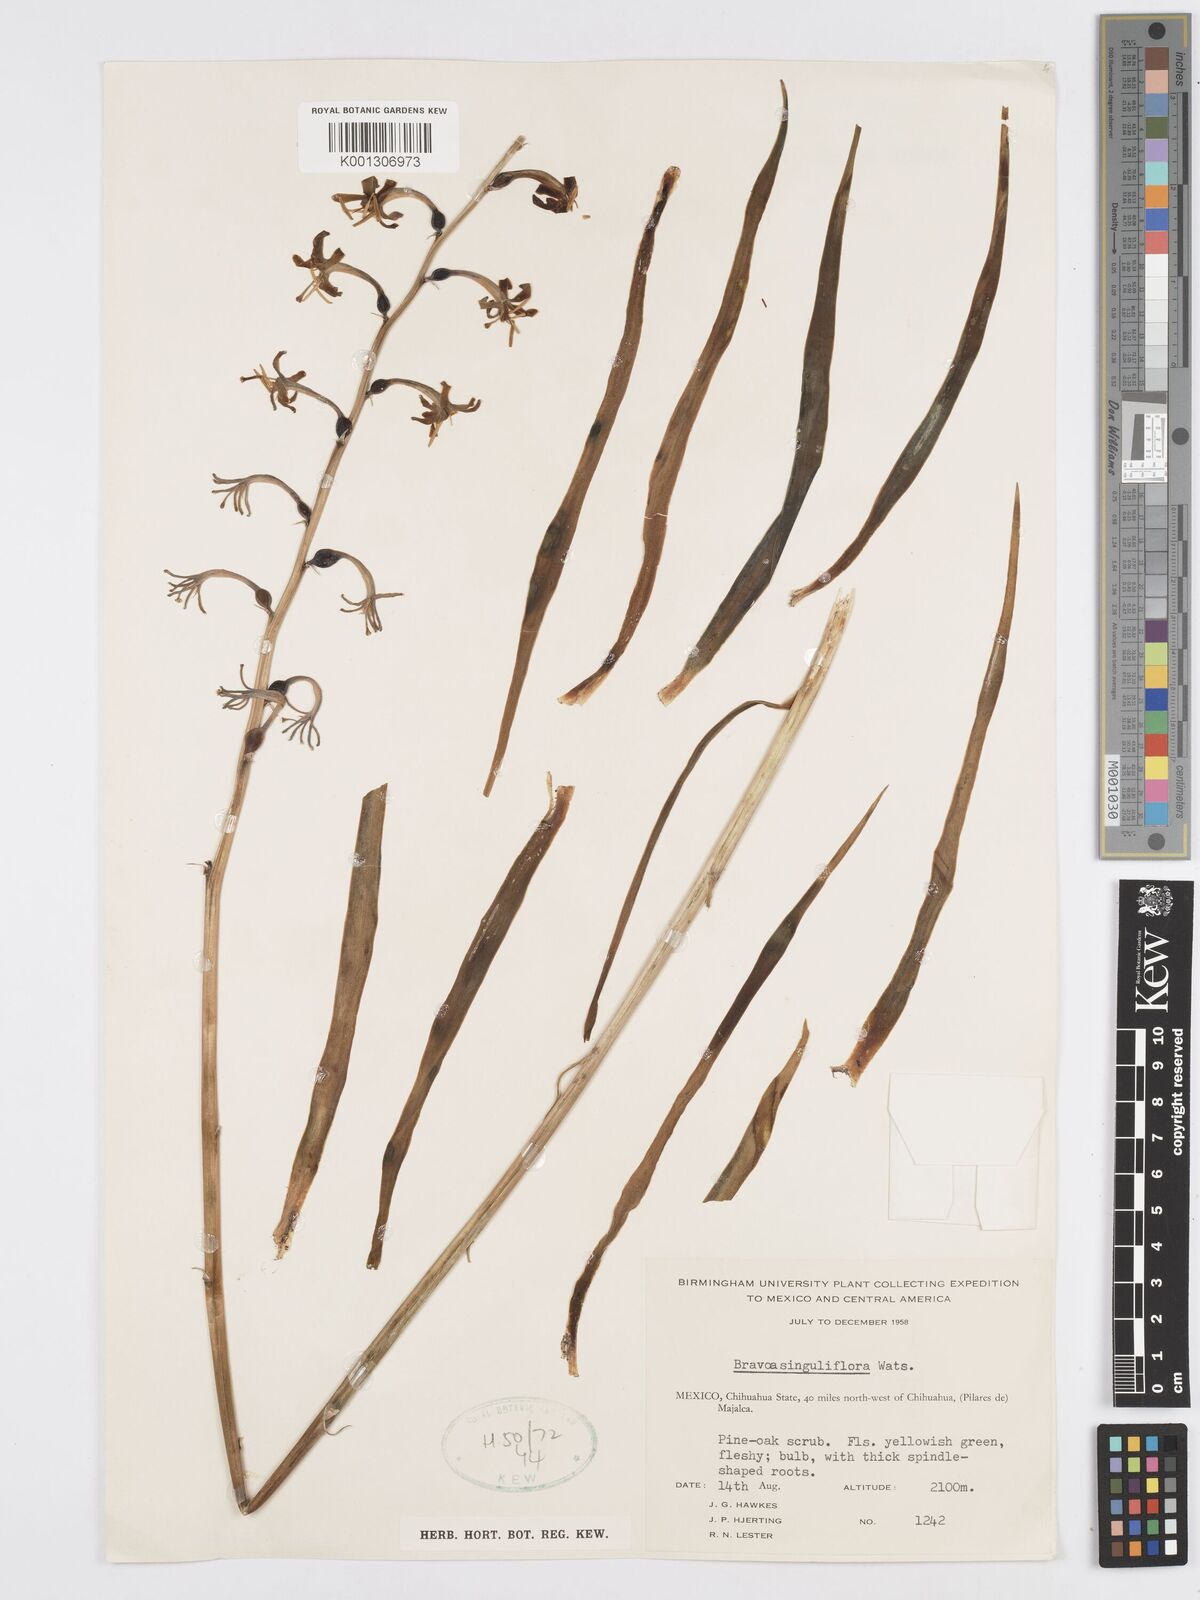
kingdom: Plantae
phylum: Tracheophyta
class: Liliopsida
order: Asparagales
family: Asparagaceae
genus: Agave
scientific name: Agave singuliflora
